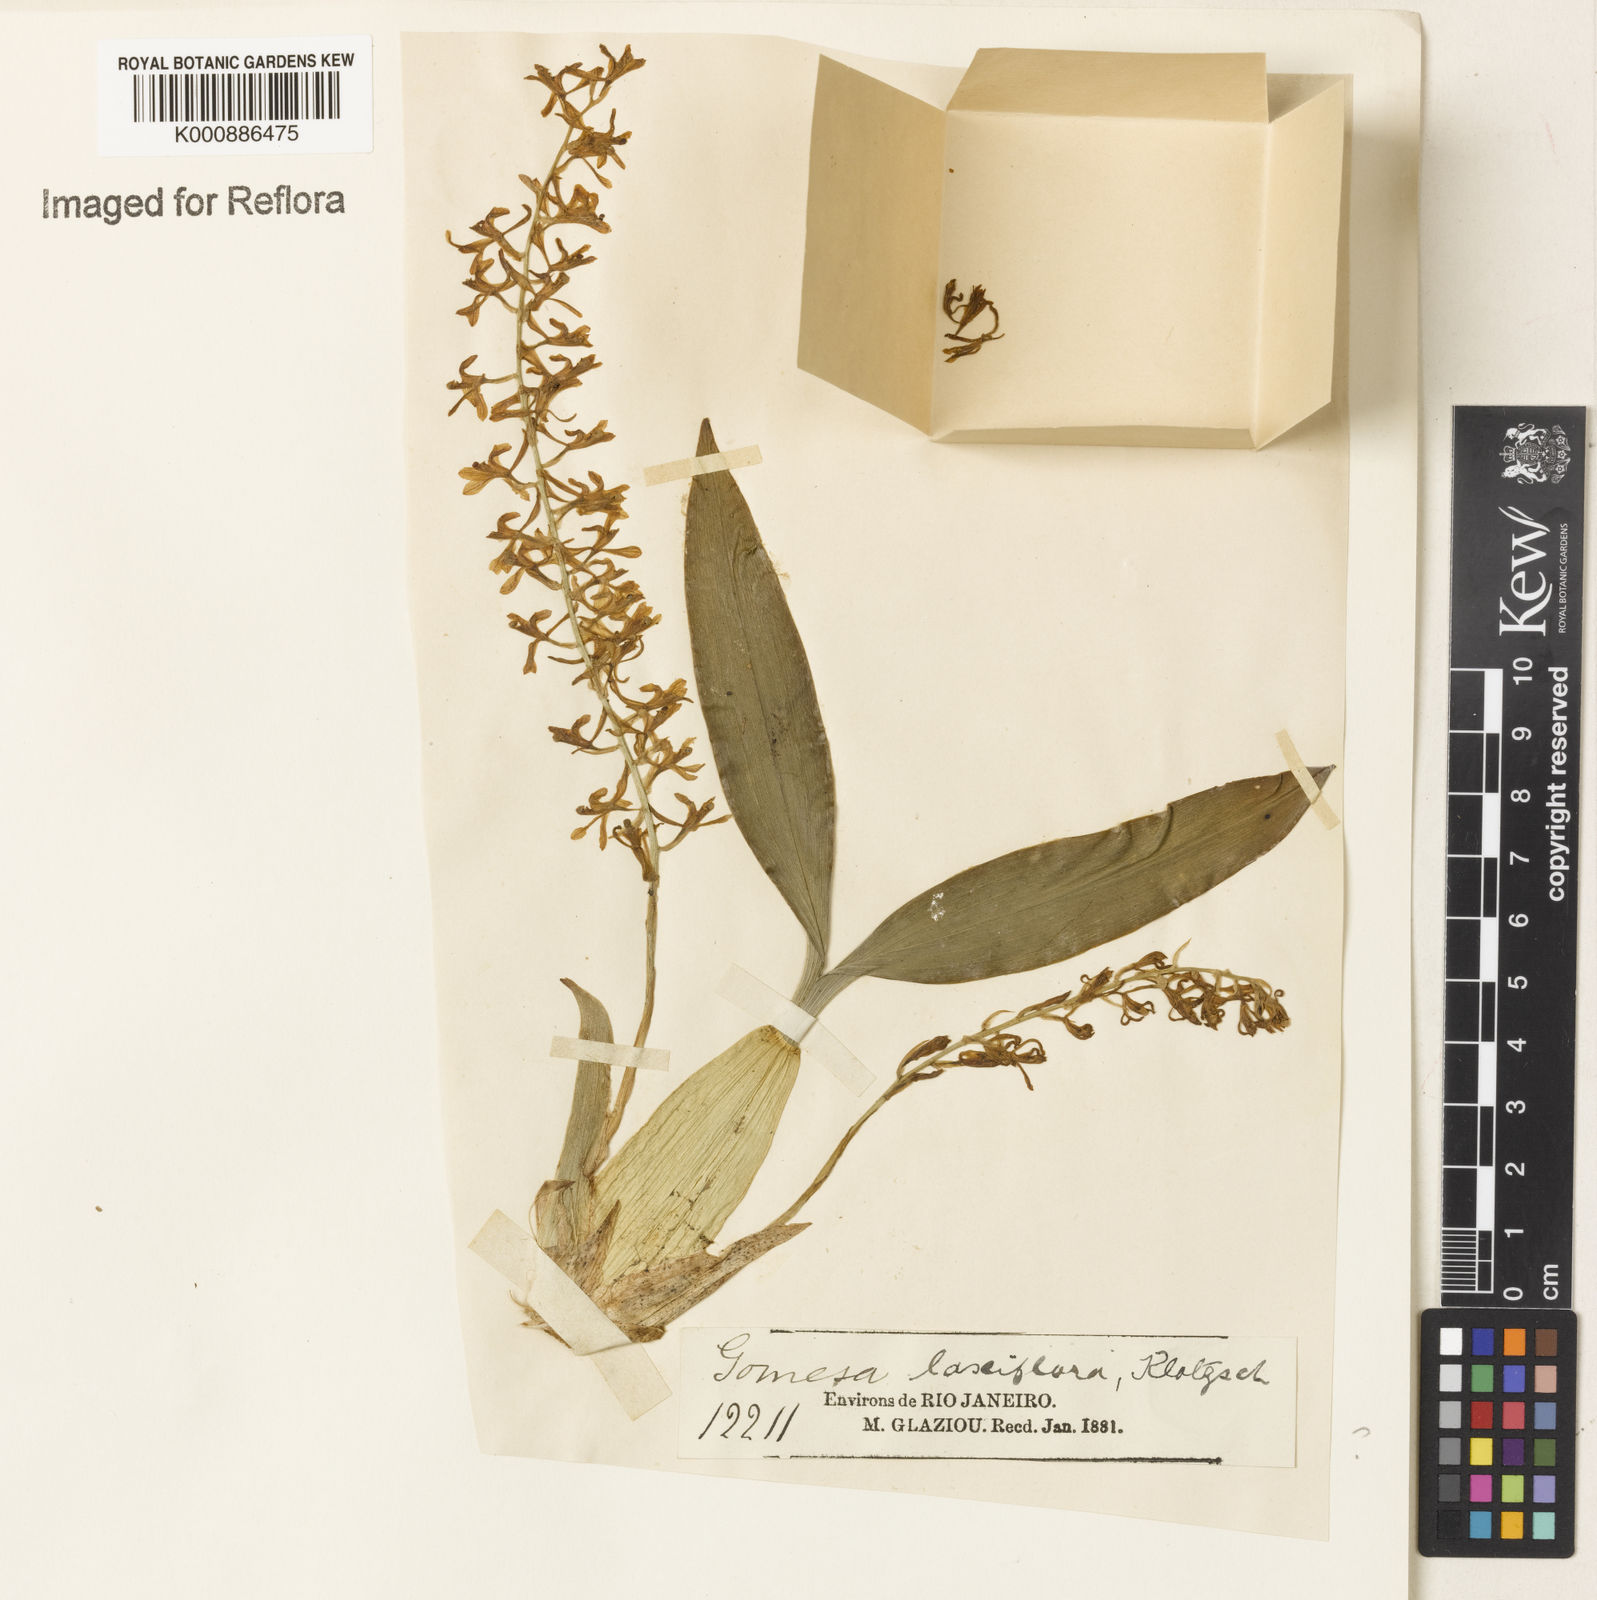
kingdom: Plantae
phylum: Tracheophyta
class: Liliopsida
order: Asparagales
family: Orchidaceae
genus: Gomesa
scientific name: Gomesa
